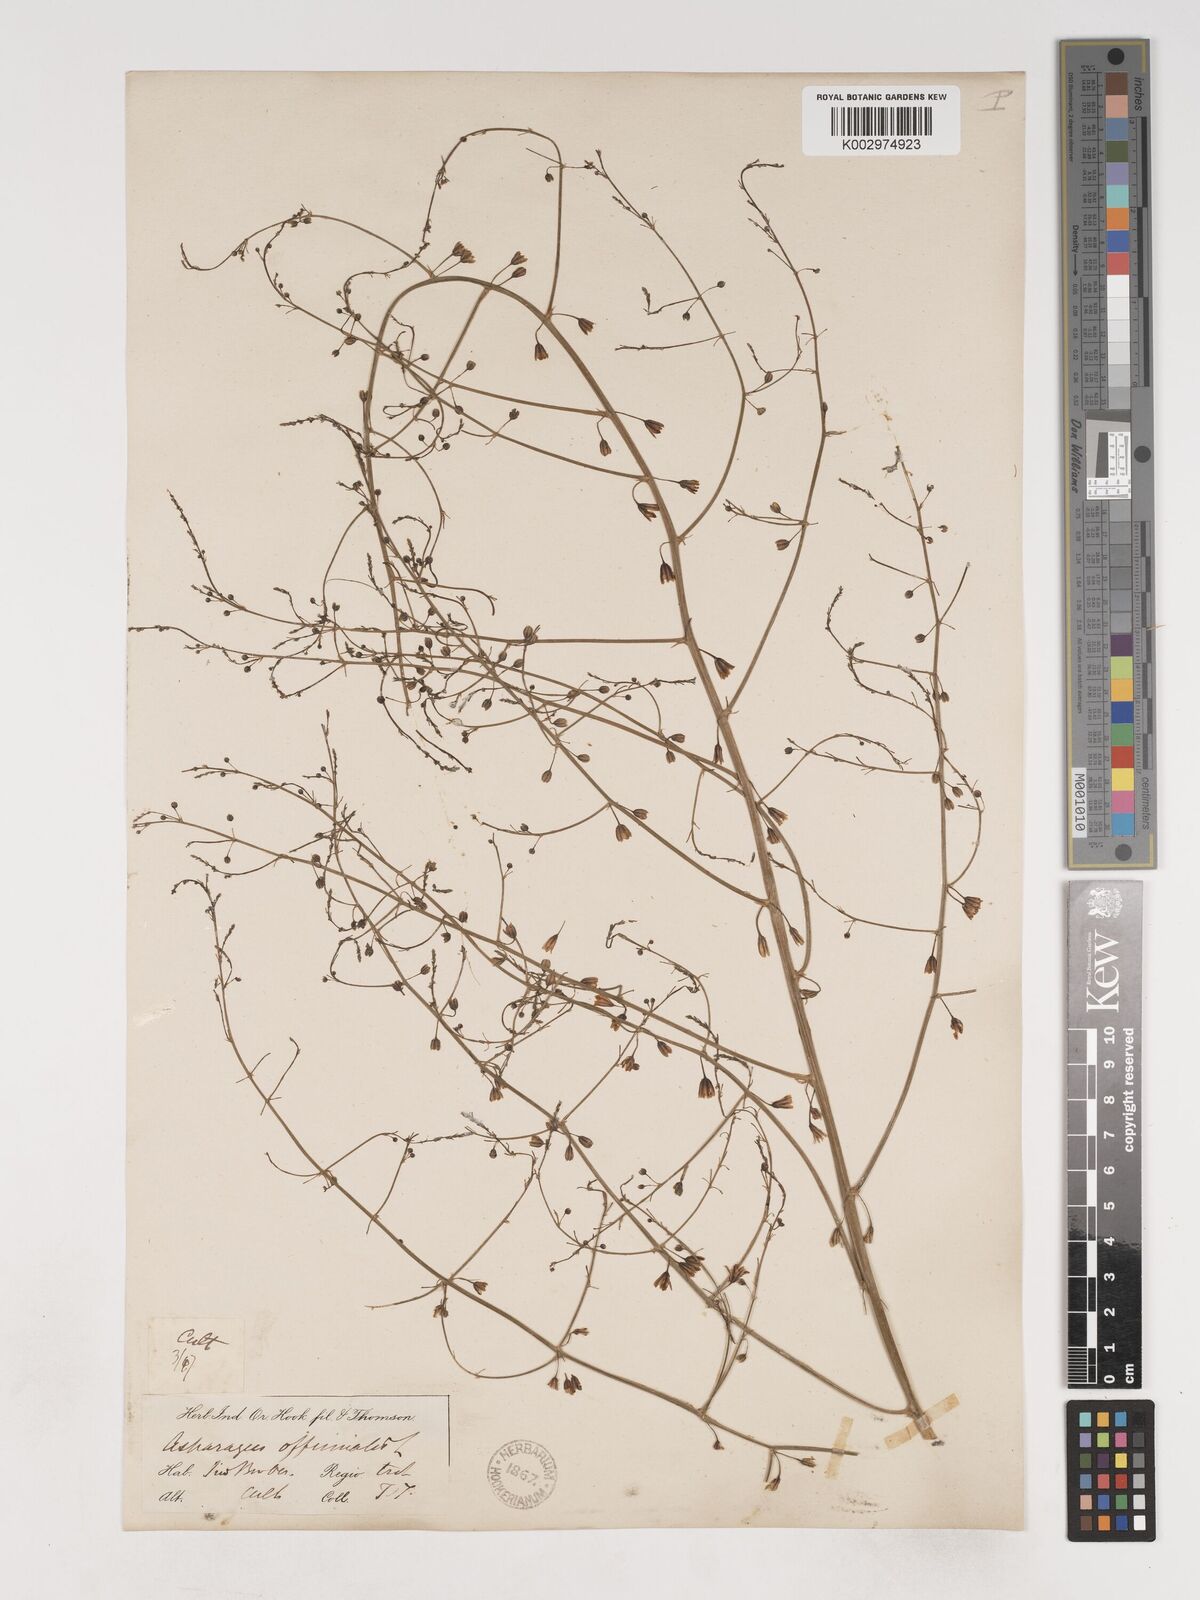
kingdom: Plantae
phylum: Tracheophyta
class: Liliopsida
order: Asparagales
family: Asparagaceae
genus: Asparagus
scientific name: Asparagus officinalis
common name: Garden asparagus
